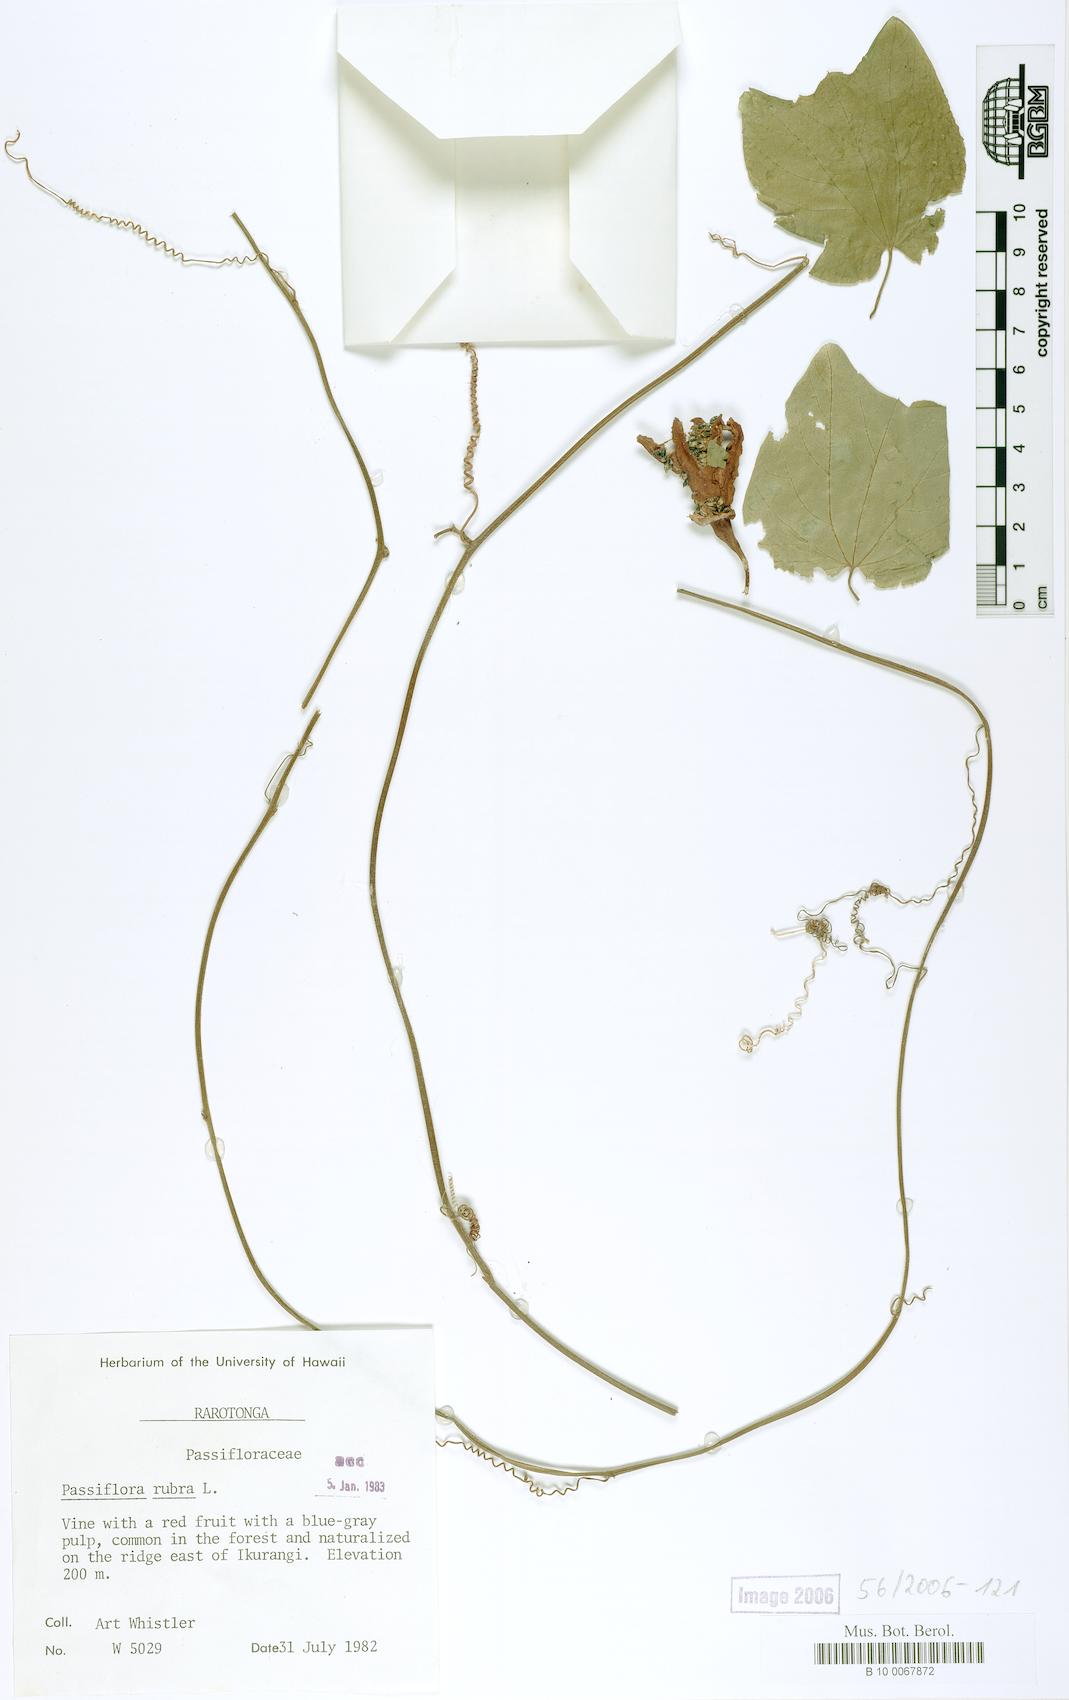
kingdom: Plantae
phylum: Tracheophyta
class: Magnoliopsida
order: Malpighiales
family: Passifloraceae
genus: Passiflora
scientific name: Passiflora rubra
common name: Snakeberry vine
